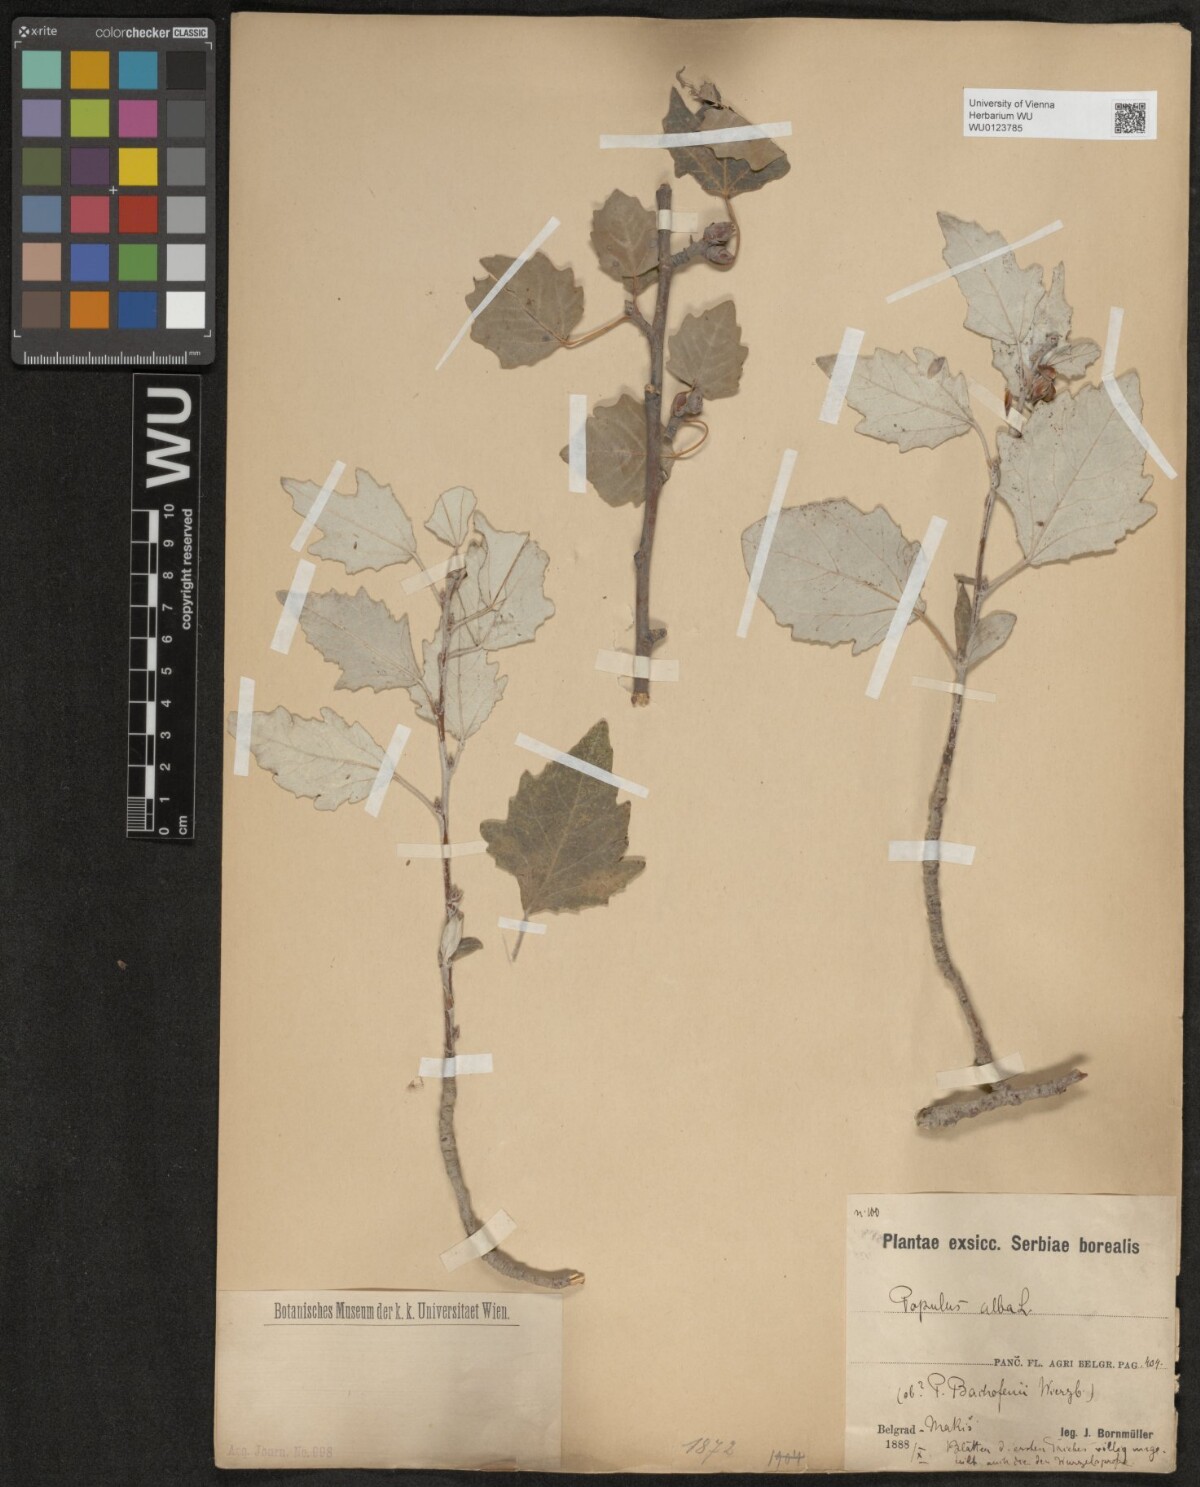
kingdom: Plantae
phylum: Tracheophyta
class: Magnoliopsida
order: Malpighiales
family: Salicaceae
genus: Populus
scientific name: Populus alba
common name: White poplar
